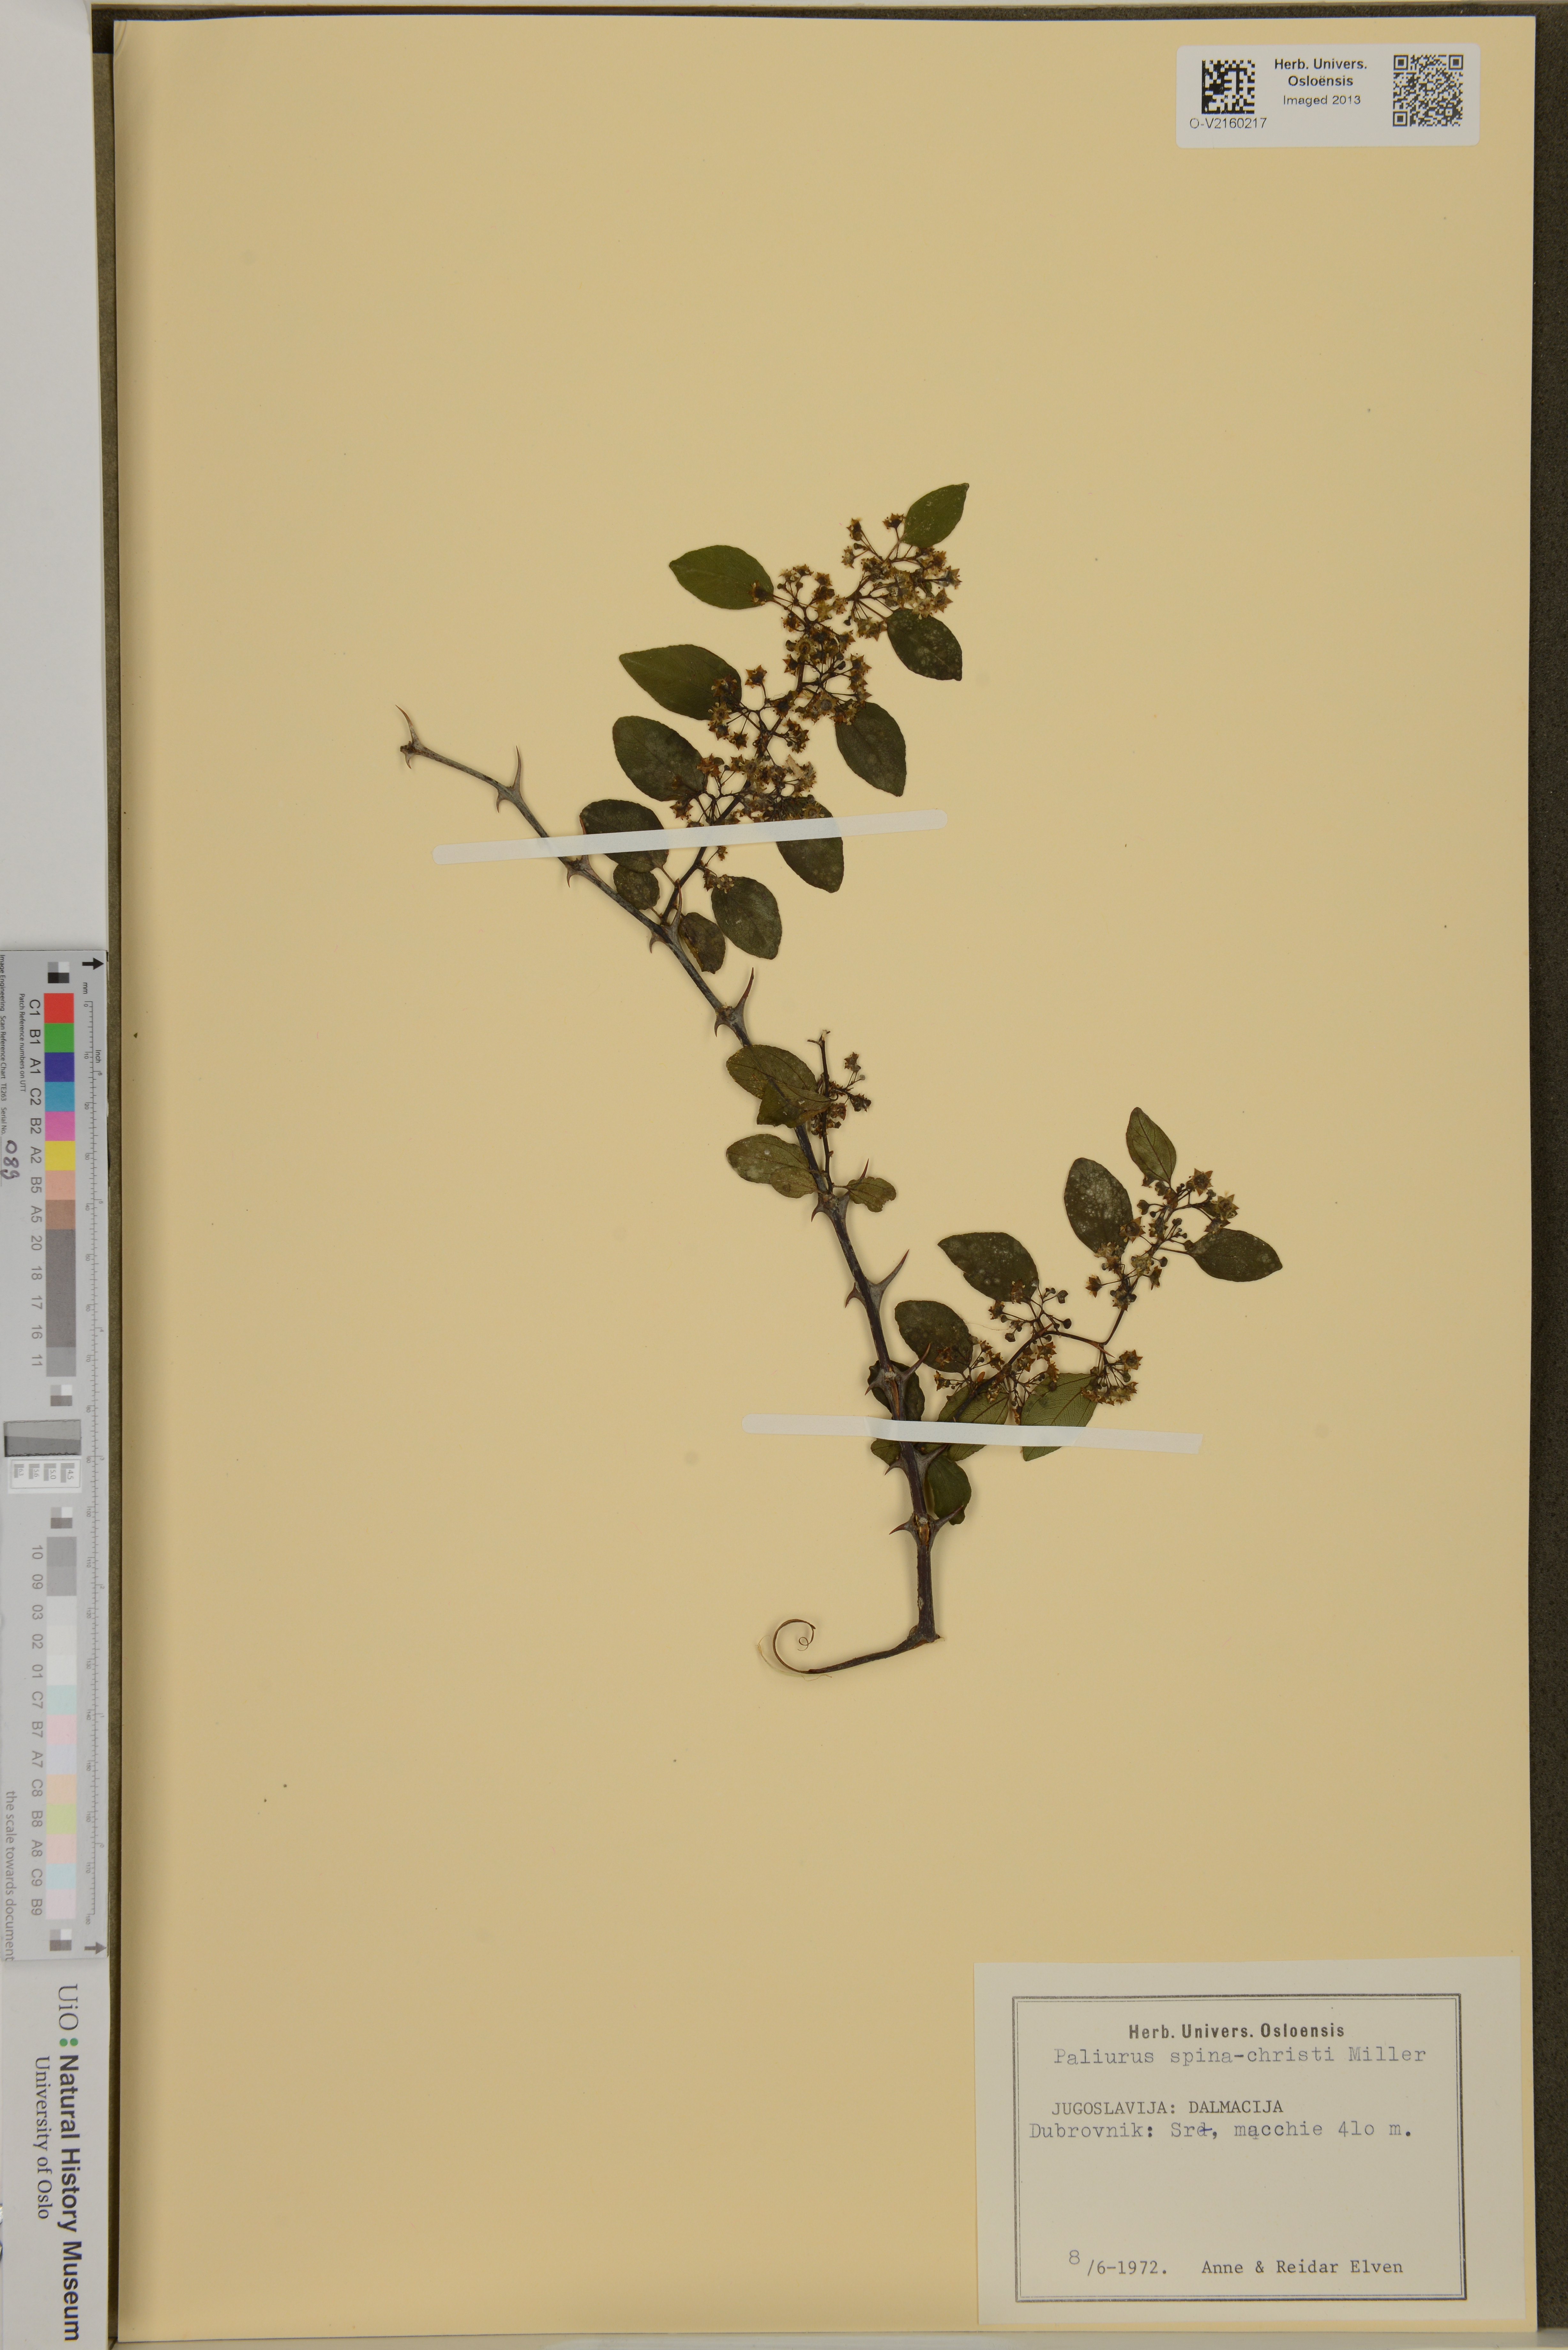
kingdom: Plantae
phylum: Tracheophyta
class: Magnoliopsida
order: Rosales
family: Rhamnaceae
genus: Paliurus
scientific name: Paliurus spina-christi
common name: Jeruselem thorn
